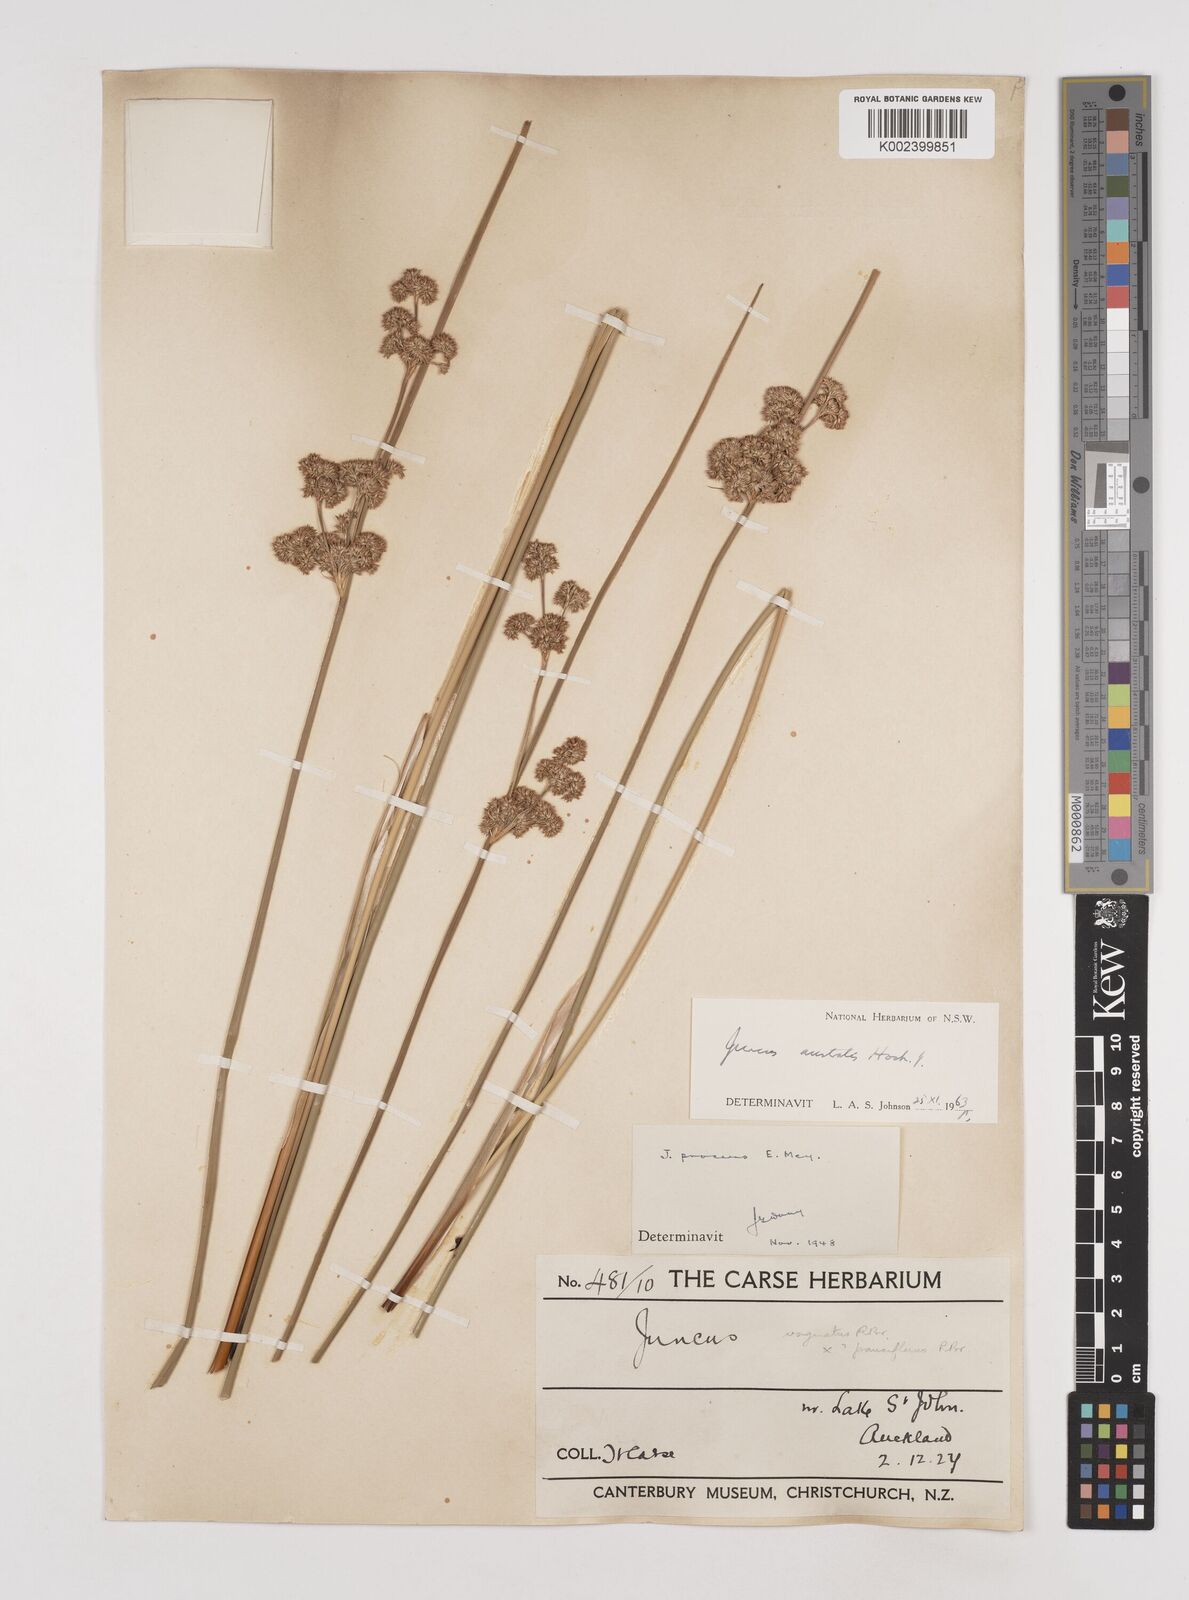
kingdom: Plantae
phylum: Tracheophyta
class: Liliopsida
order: Poales
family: Juncaceae
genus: Juncus
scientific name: Juncus australis
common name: Austral rush
